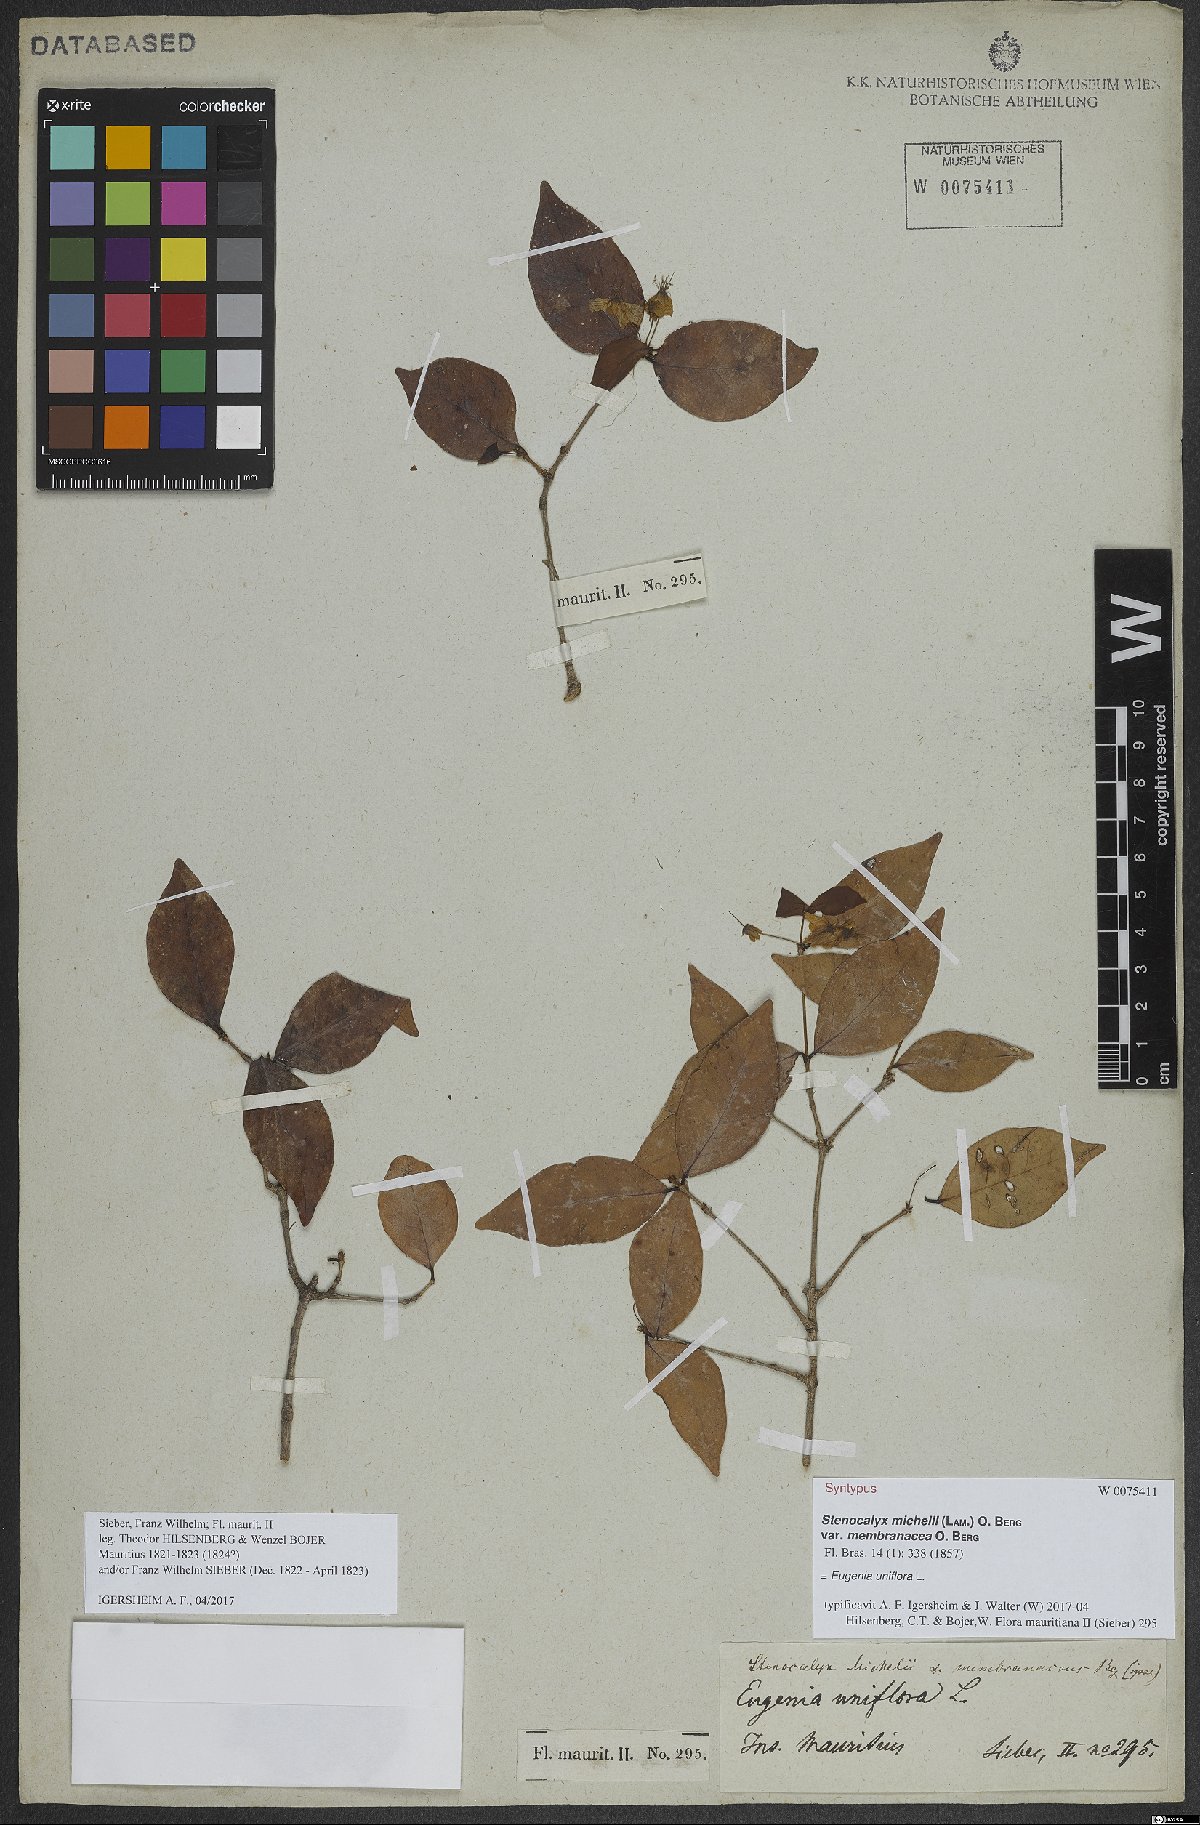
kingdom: Plantae
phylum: Tracheophyta
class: Magnoliopsida
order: Myrtales
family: Myrtaceae
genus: Eugenia
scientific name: Eugenia uniflora
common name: Surinam cherry
